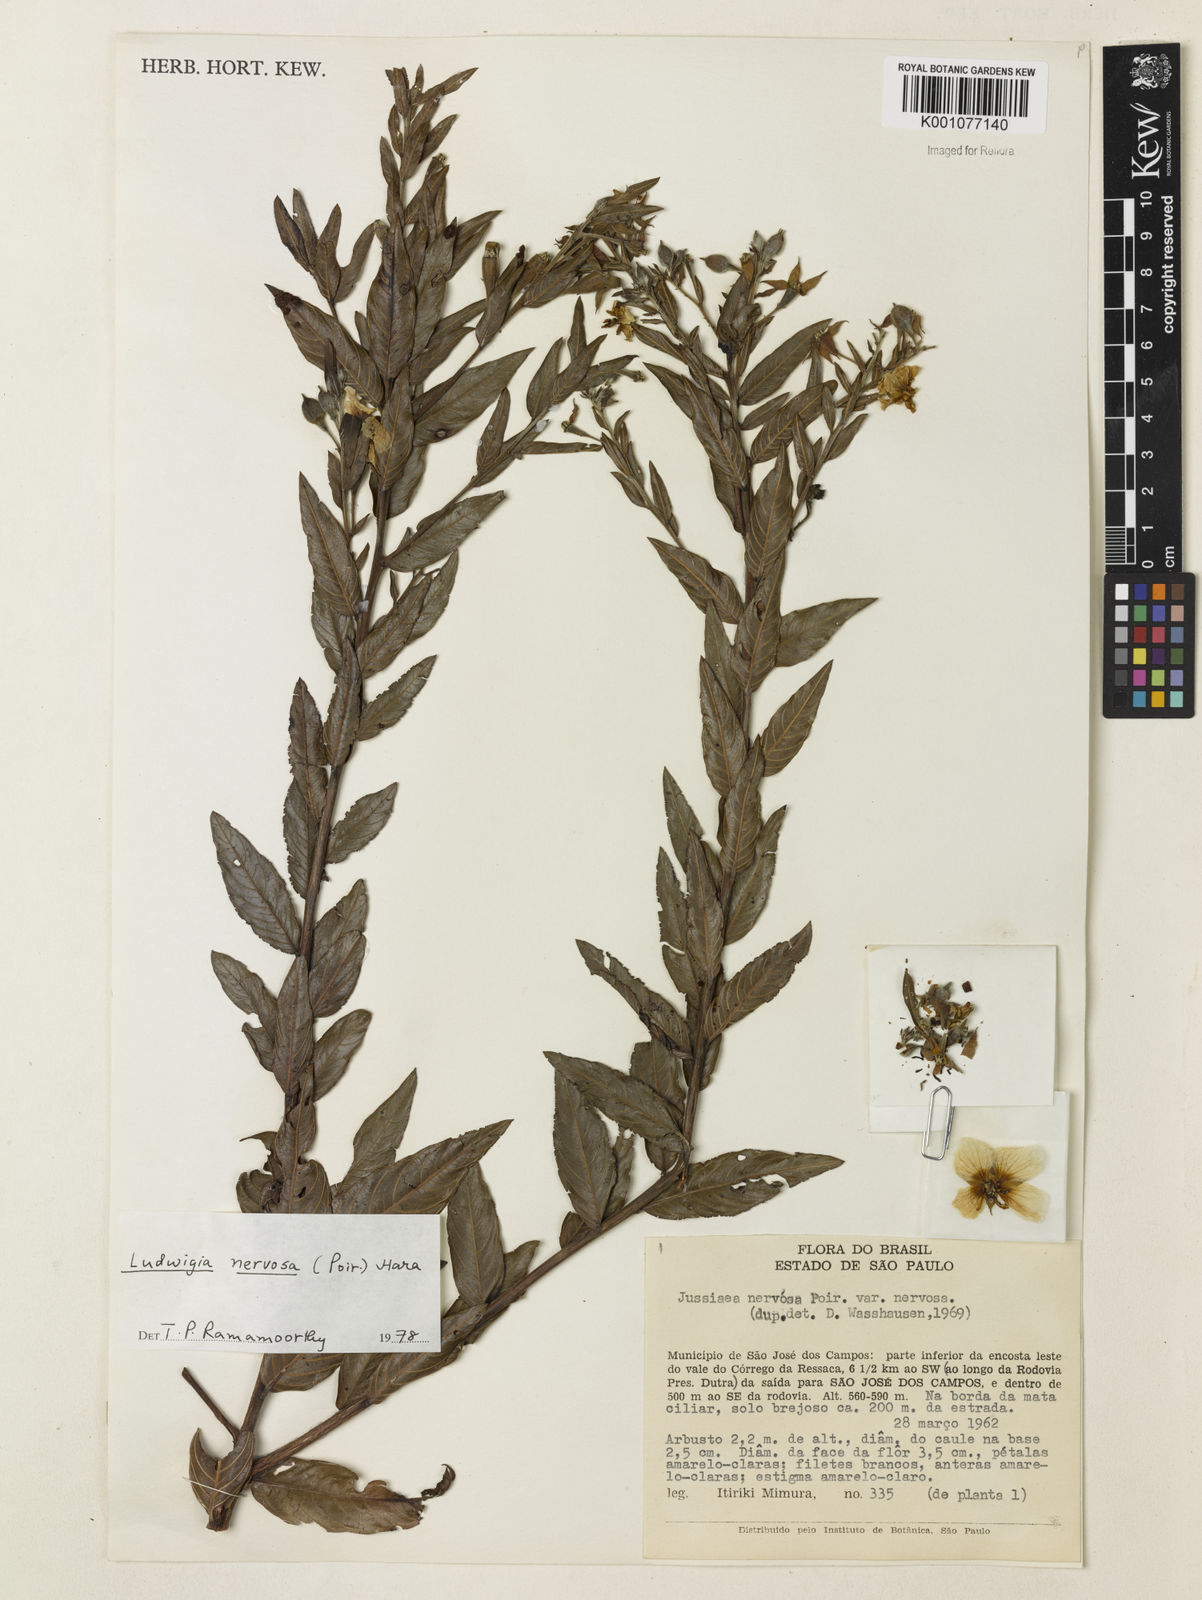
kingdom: Plantae
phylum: Tracheophyta
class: Magnoliopsida
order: Myrtales
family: Onagraceae
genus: Ludwigia
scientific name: Ludwigia nervosa
